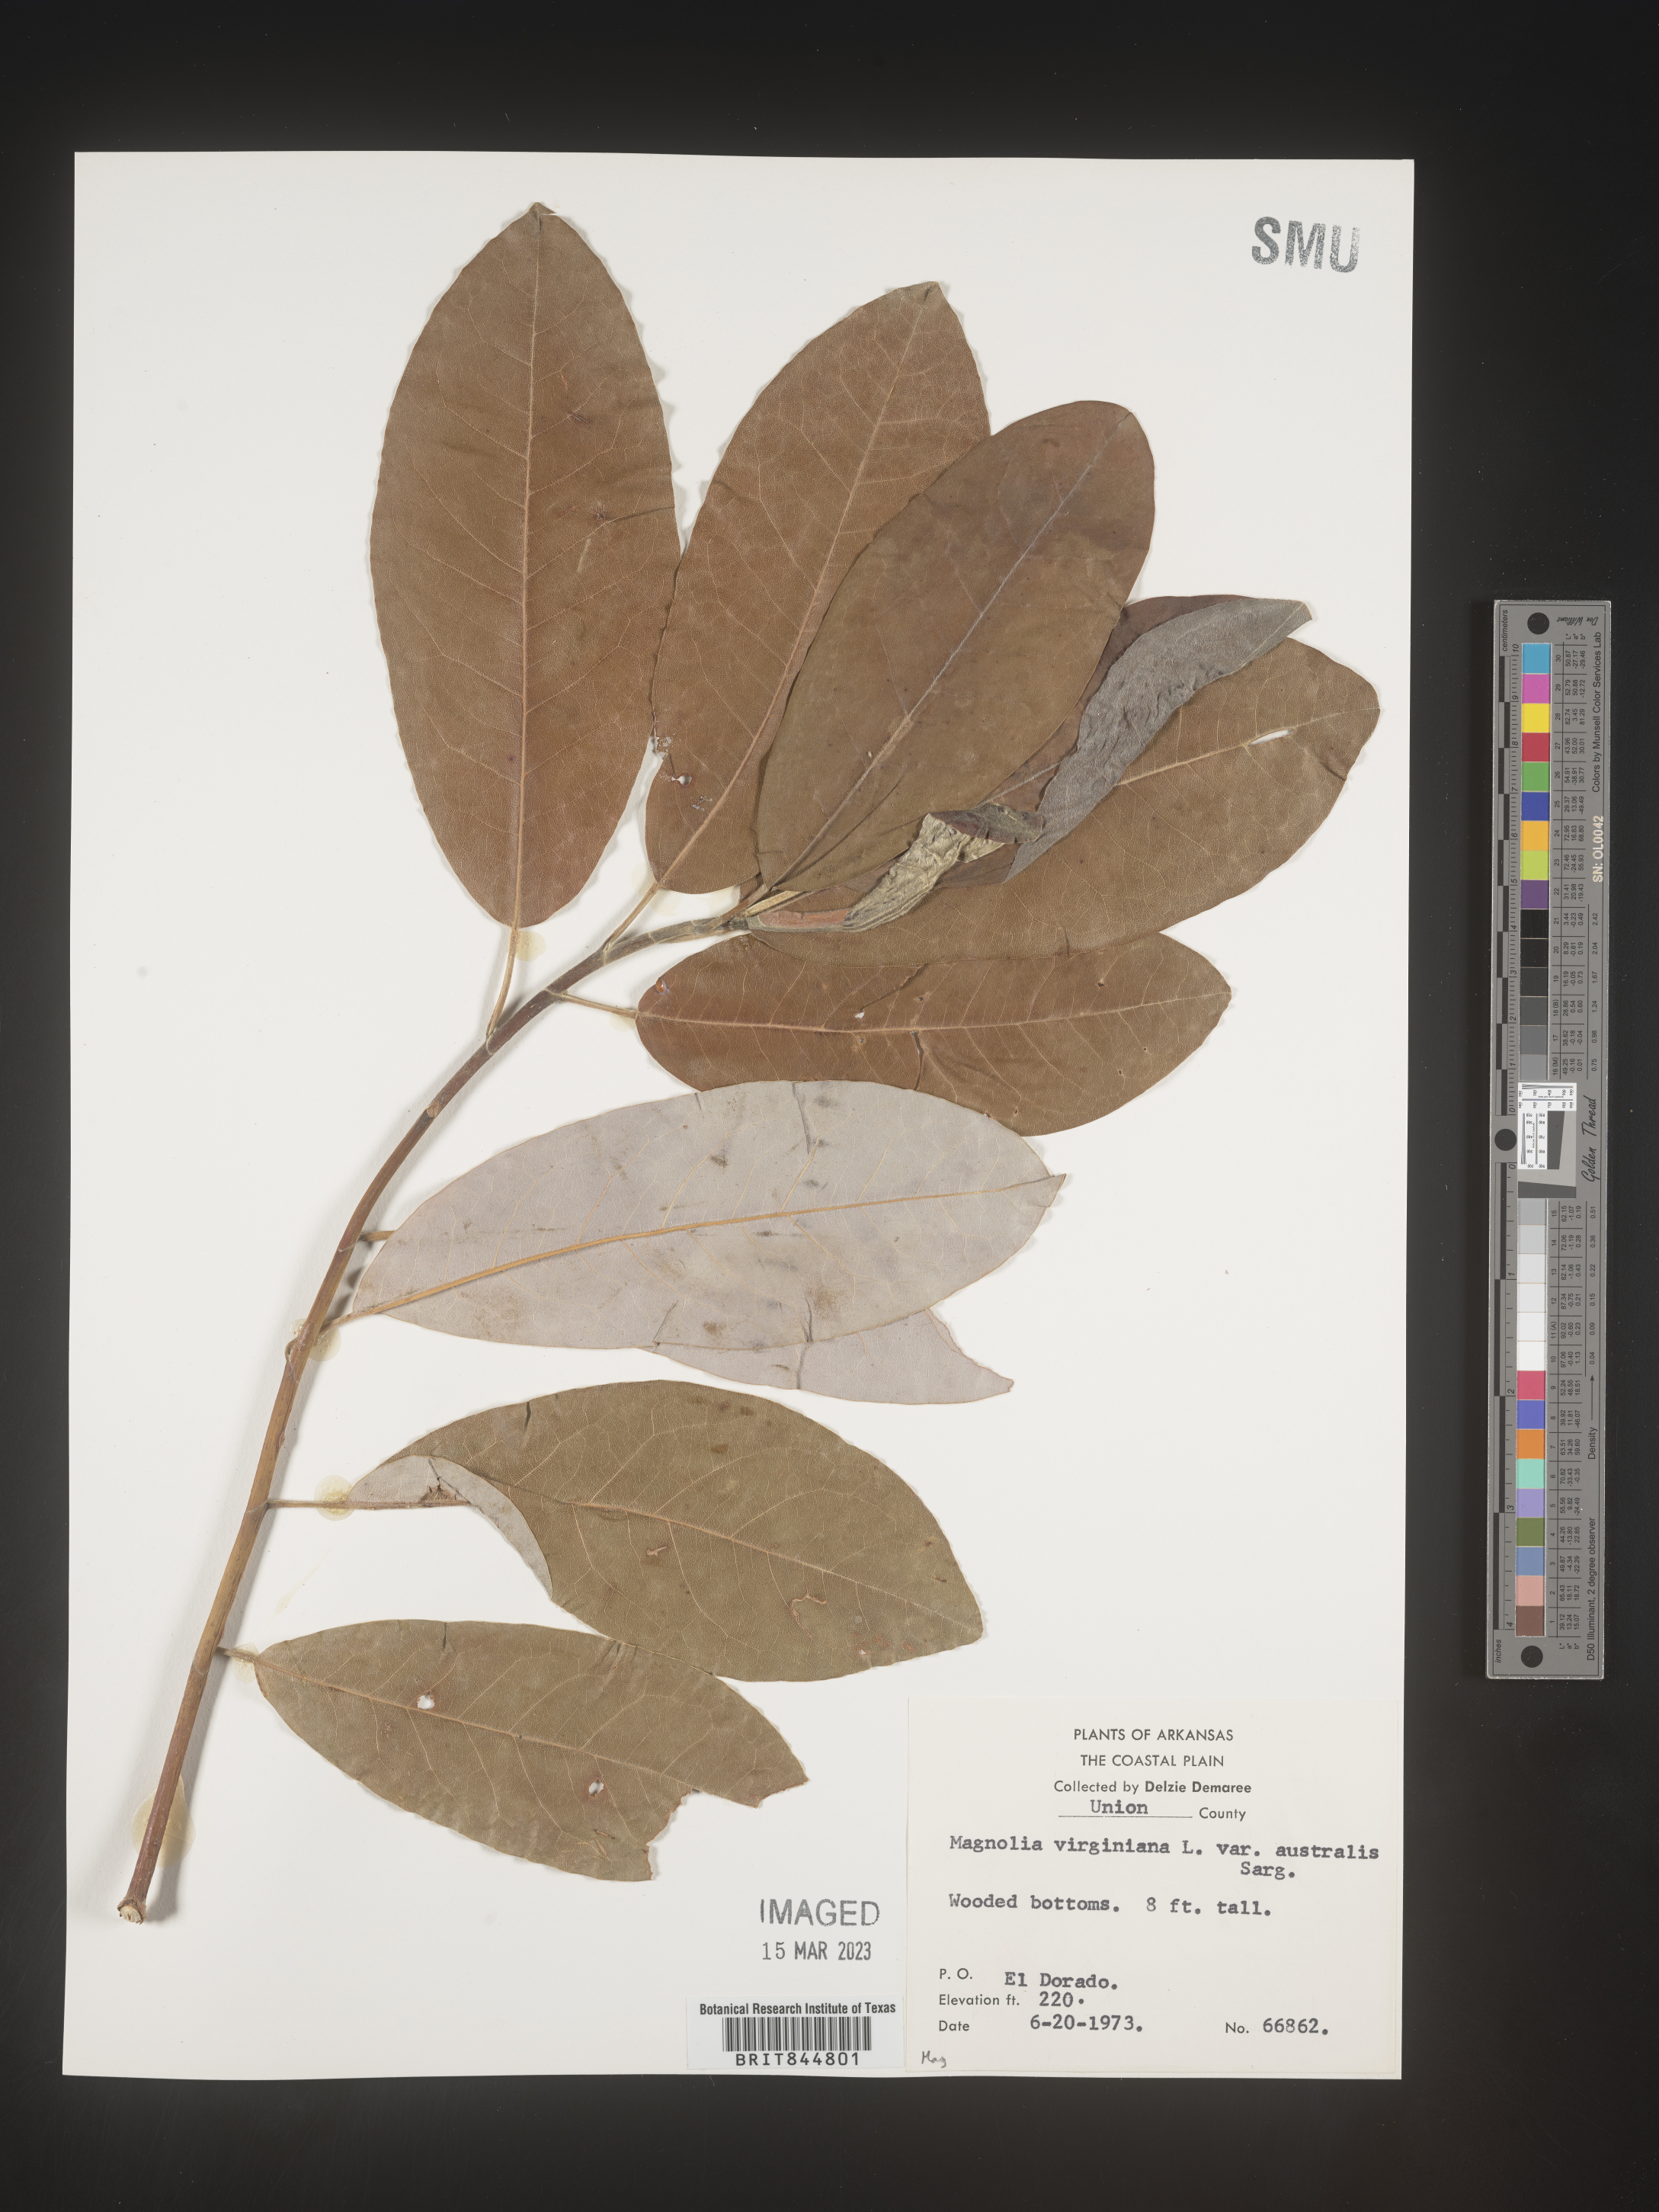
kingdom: Plantae
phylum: Tracheophyta
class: Magnoliopsida
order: Magnoliales
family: Magnoliaceae
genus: Magnolia
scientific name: Magnolia virginiana
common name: Swamp bay
